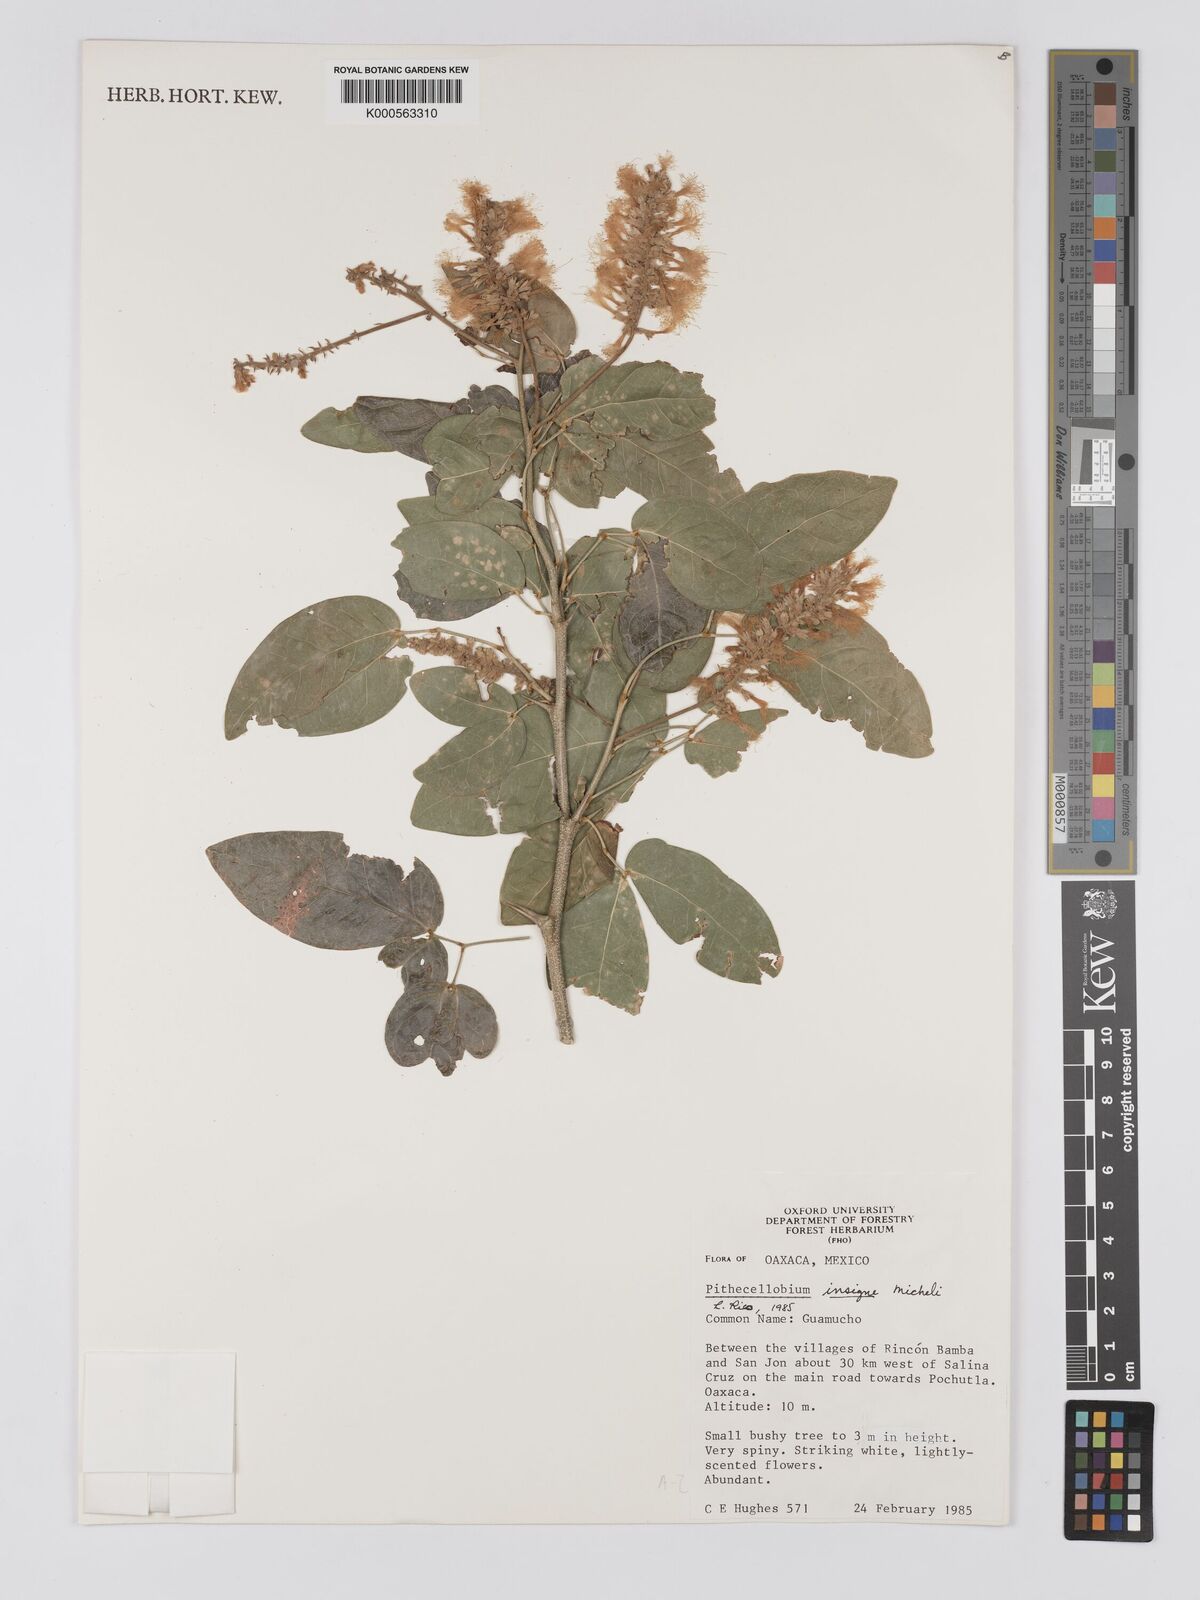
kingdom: Plantae
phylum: Tracheophyta
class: Magnoliopsida
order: Fabales
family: Fabaceae
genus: Pithecellobium
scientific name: Pithecellobium lanceolatum
